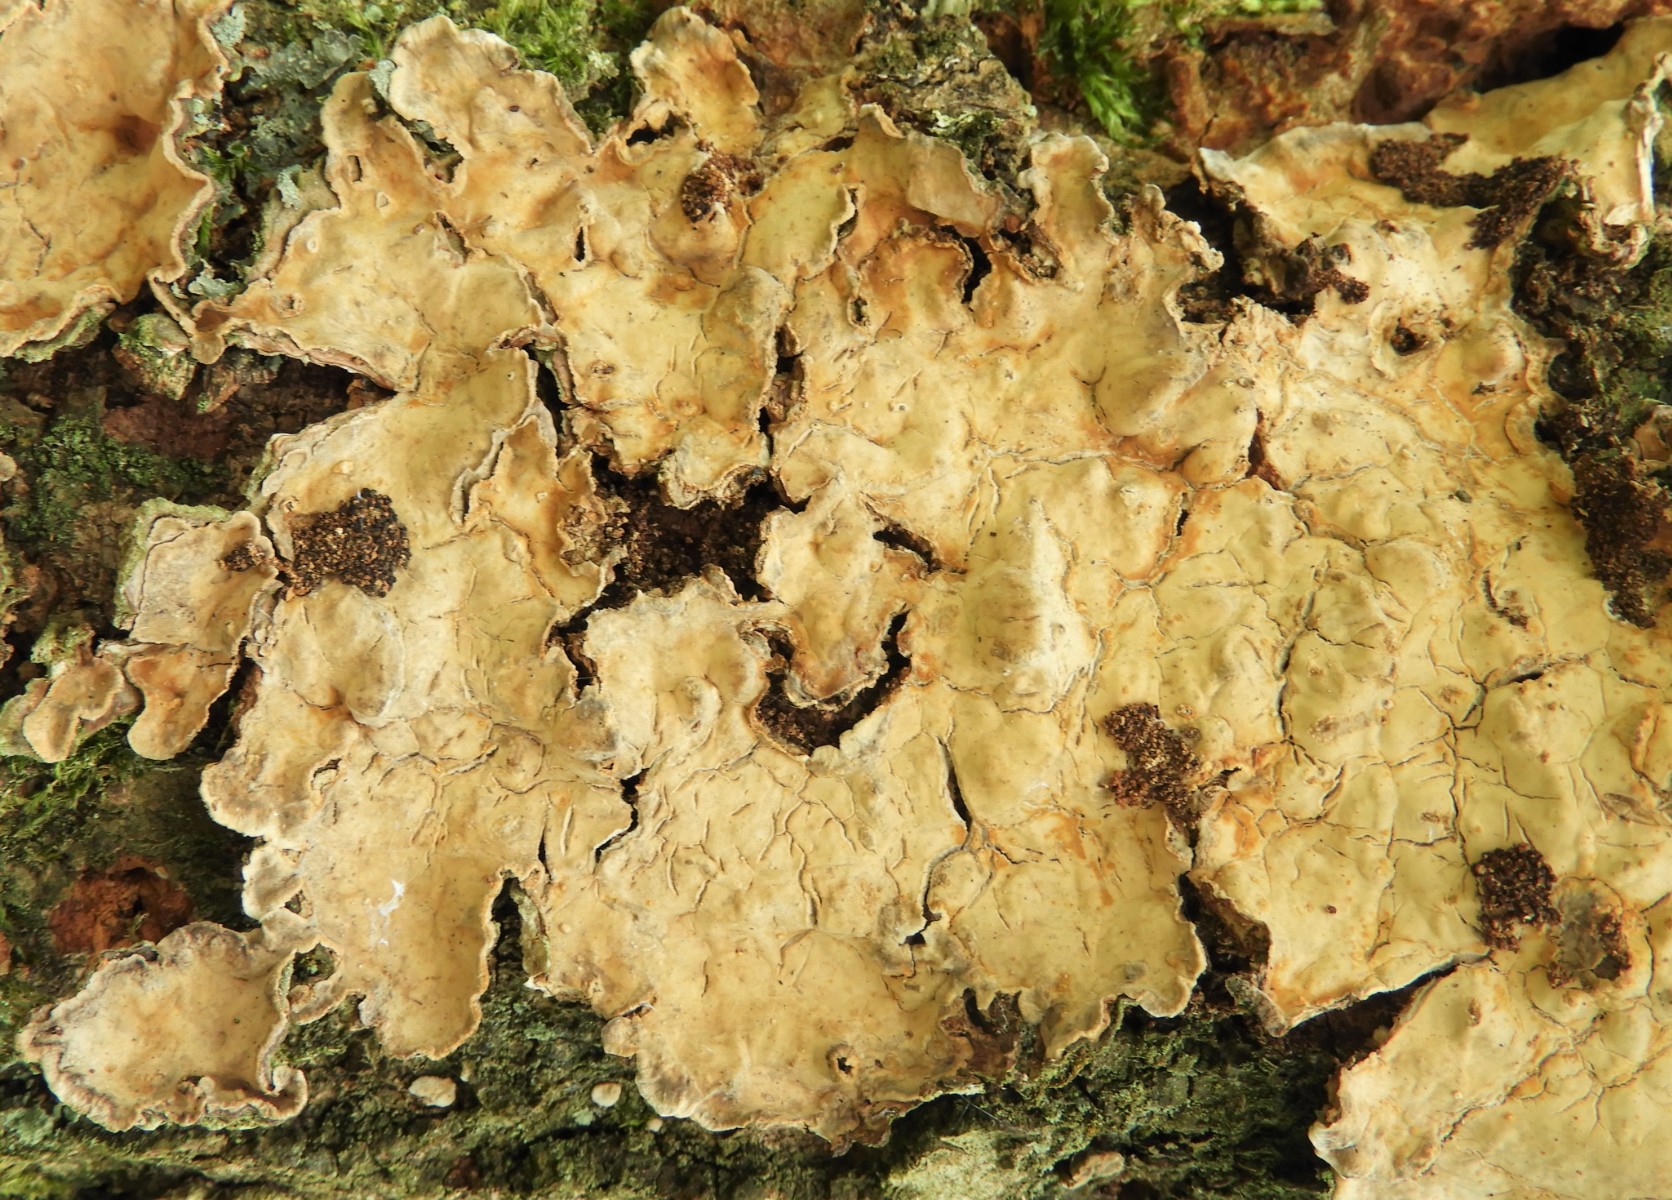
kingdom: Fungi
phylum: Basidiomycota
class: Agaricomycetes
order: Agaricales
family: Physalacriaceae
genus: Cylindrobasidium
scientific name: Cylindrobasidium evolvens
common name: sprækkehinde
